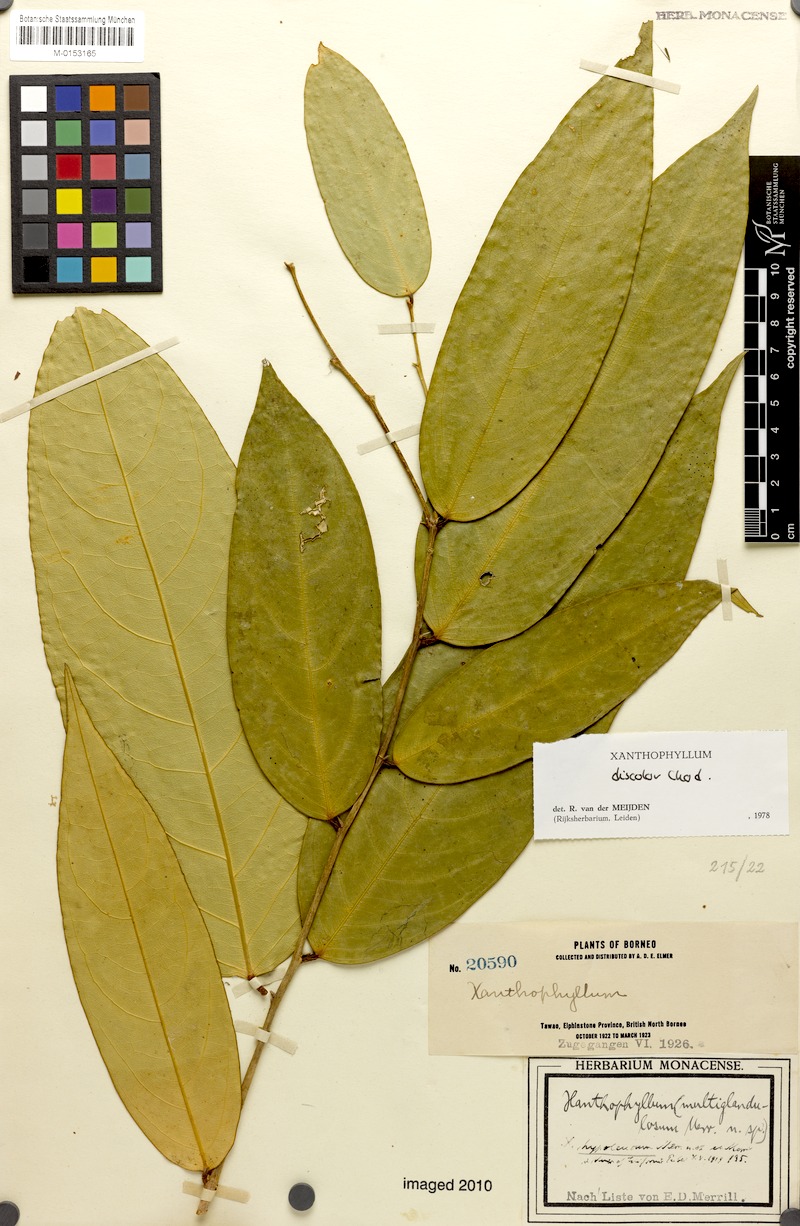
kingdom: Plantae
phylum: Tracheophyta
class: Magnoliopsida
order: Fabales
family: Polygalaceae
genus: Xanthophyllum
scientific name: Xanthophyllum discolor
